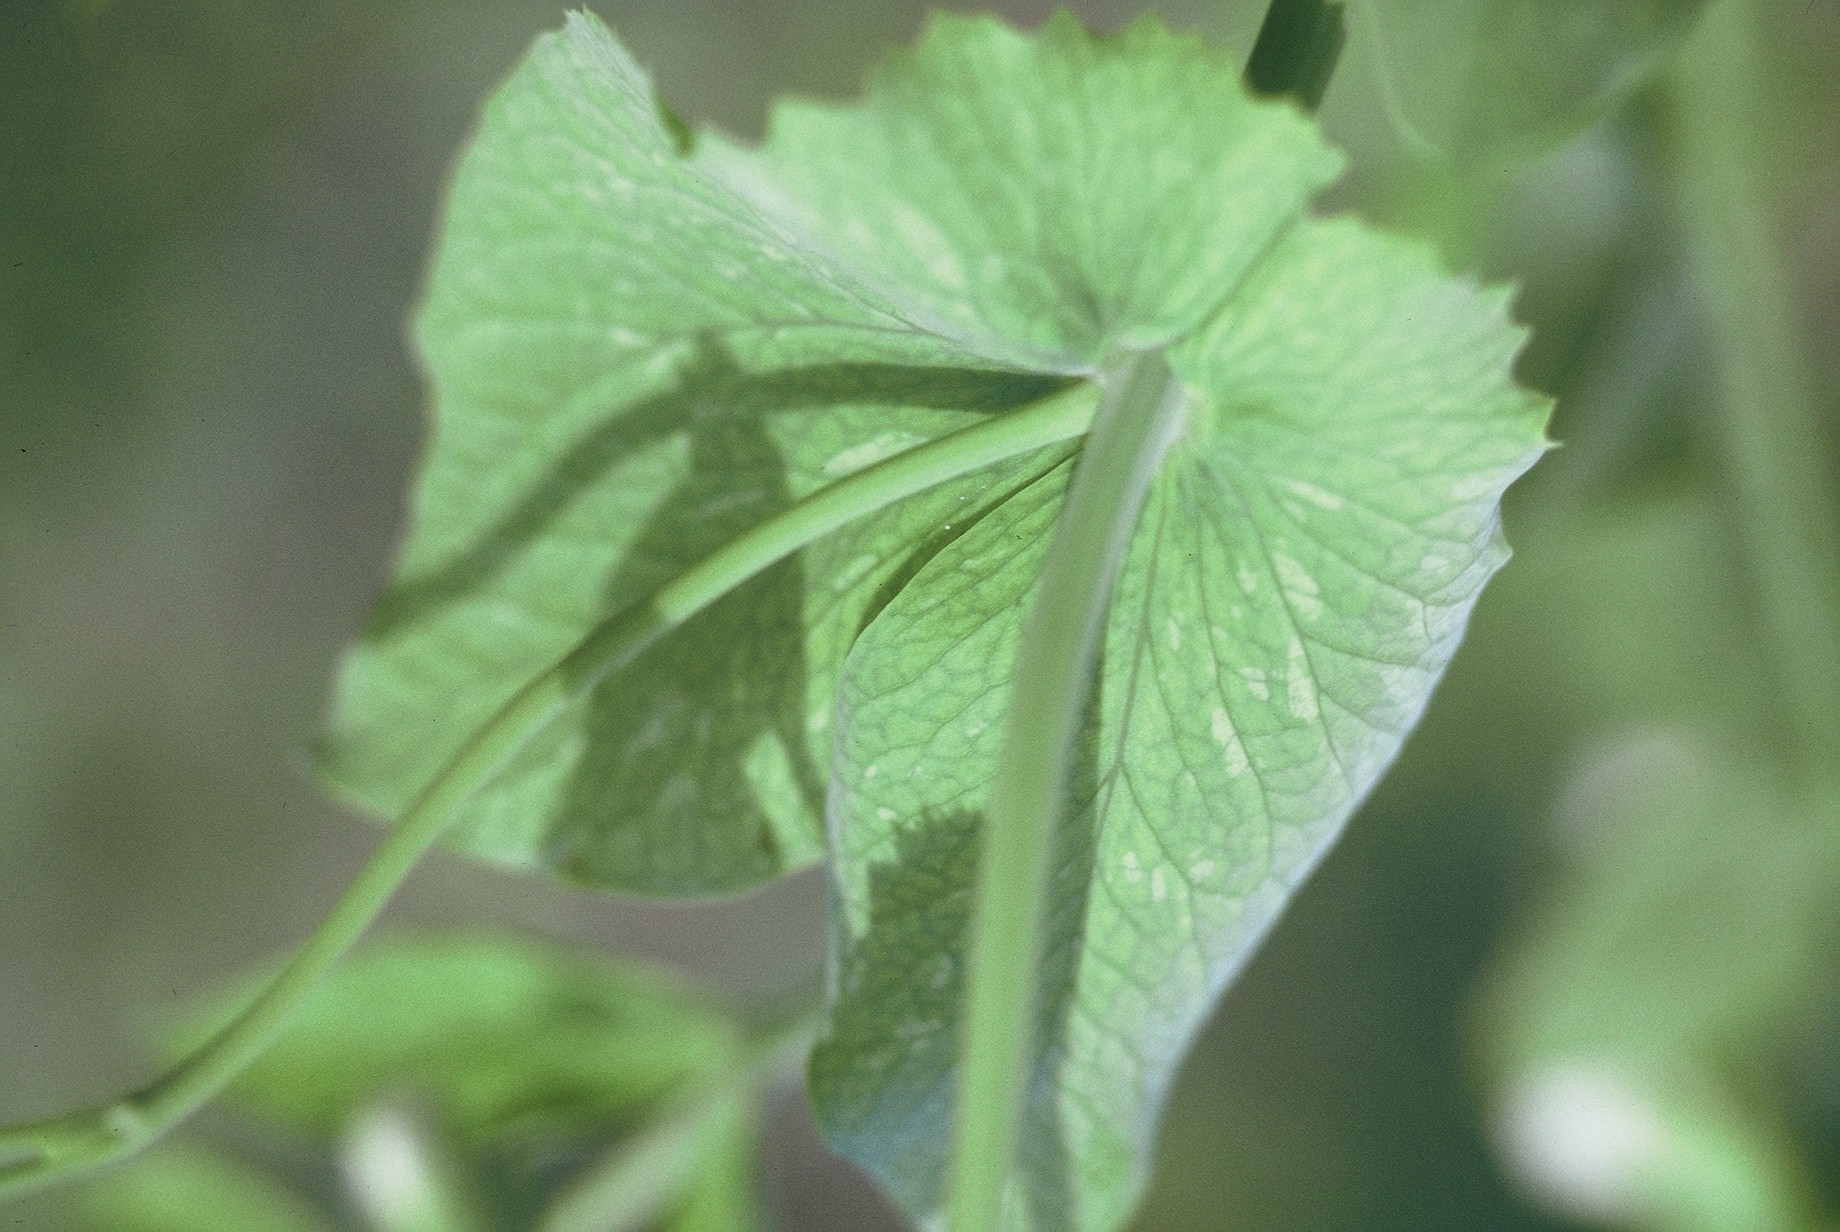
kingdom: Plantae
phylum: Tracheophyta
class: Magnoliopsida
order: Fabales
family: Fabaceae
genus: Lathyrus
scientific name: Lathyrus oleraceus
